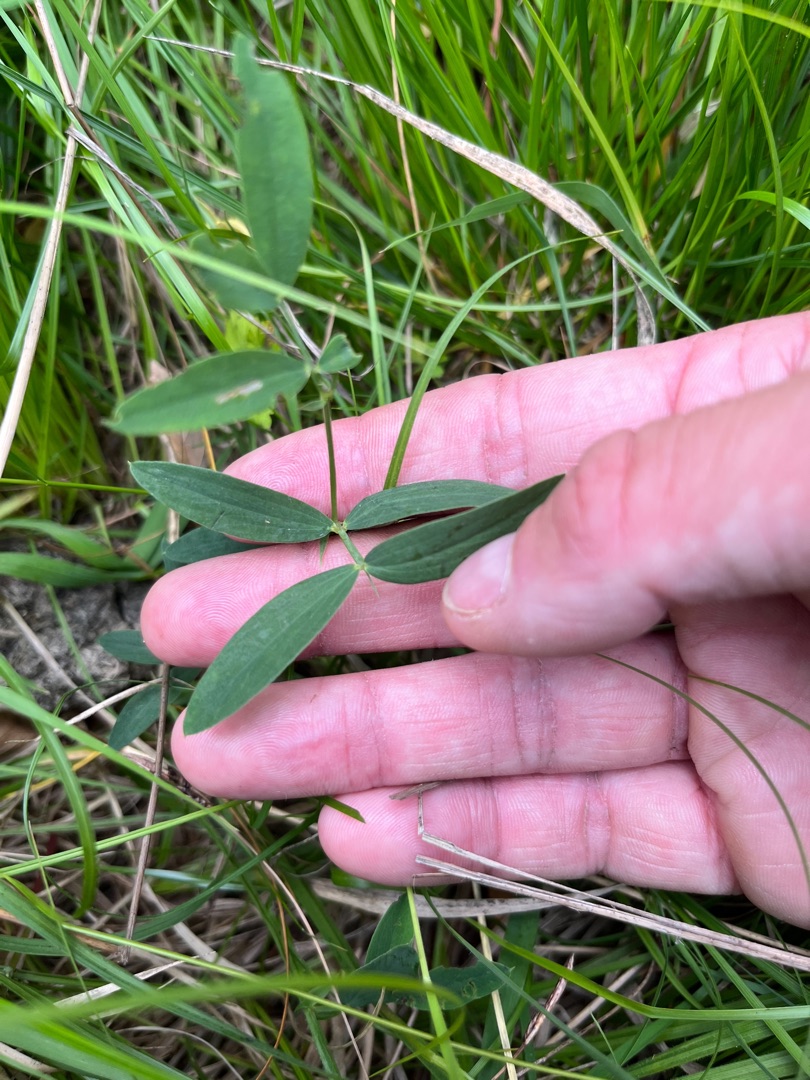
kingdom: Plantae
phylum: Tracheophyta
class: Magnoliopsida
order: Fabales
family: Fabaceae
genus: Lathyrus
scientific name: Lathyrus linifolius
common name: Krat-fladbælg
